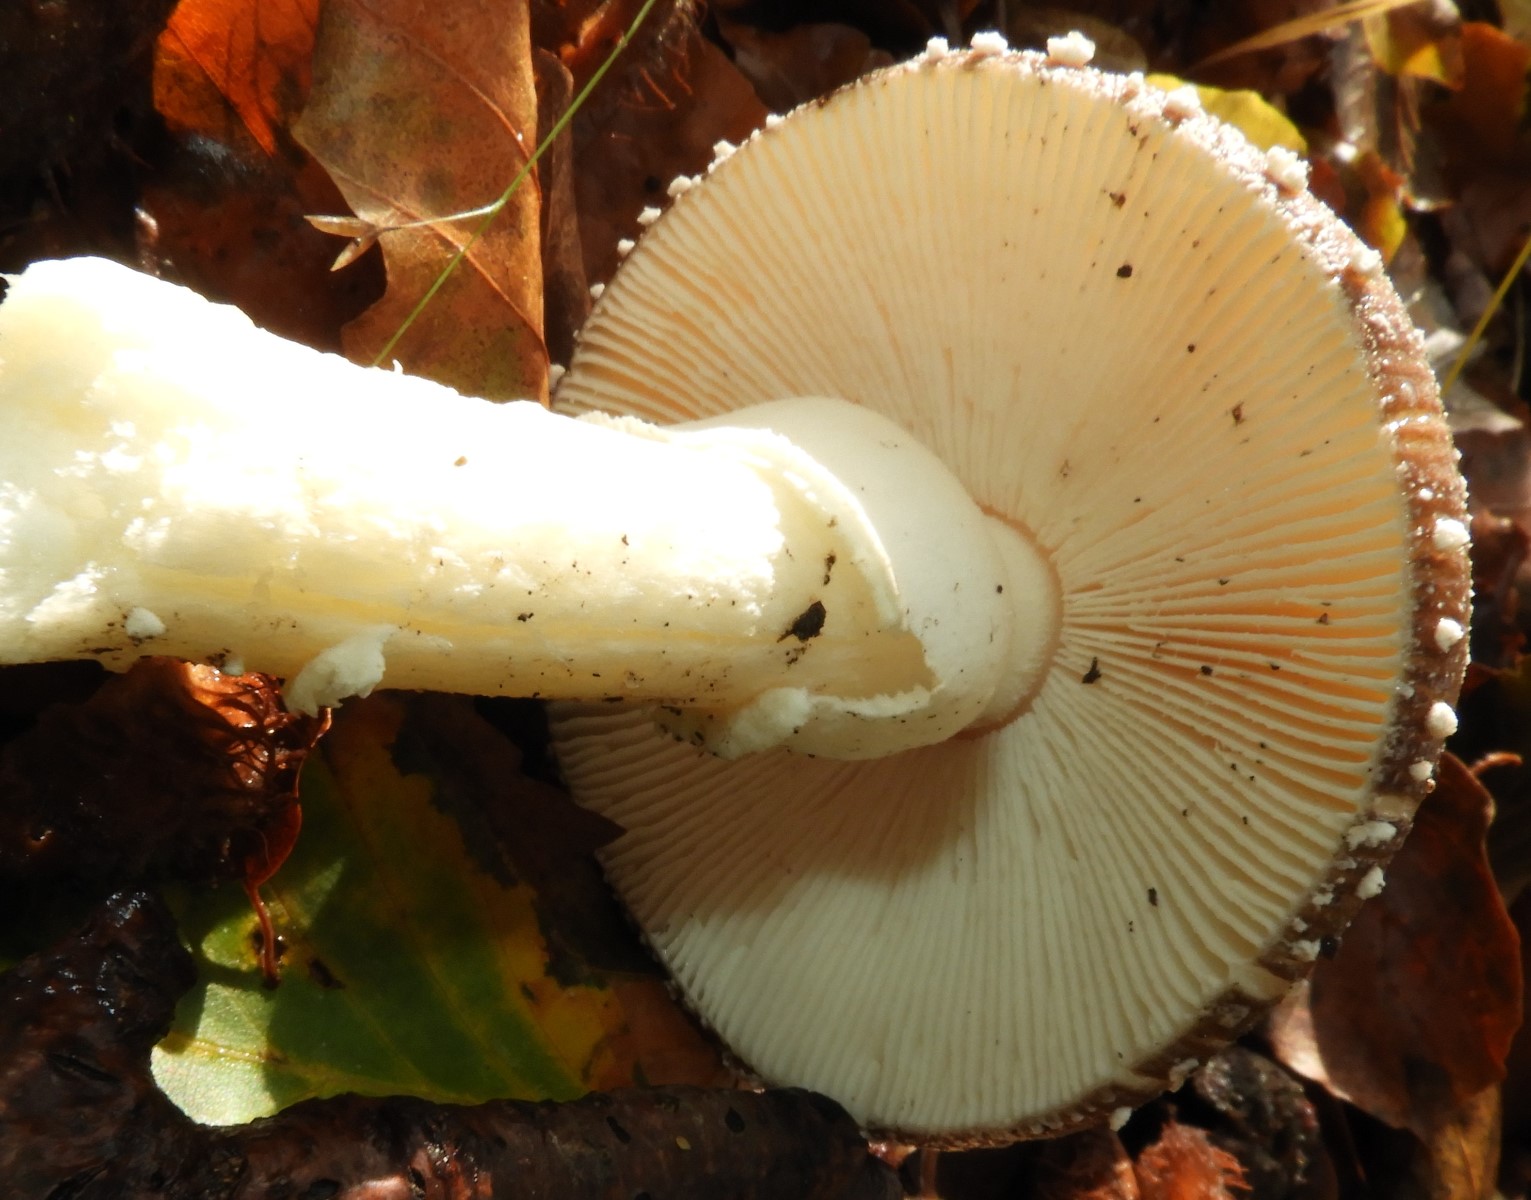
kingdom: Fungi
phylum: Basidiomycota
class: Agaricomycetes
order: Agaricales
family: Amanitaceae
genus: Amanita
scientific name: Amanita pantherina
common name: panter-fluesvamp
